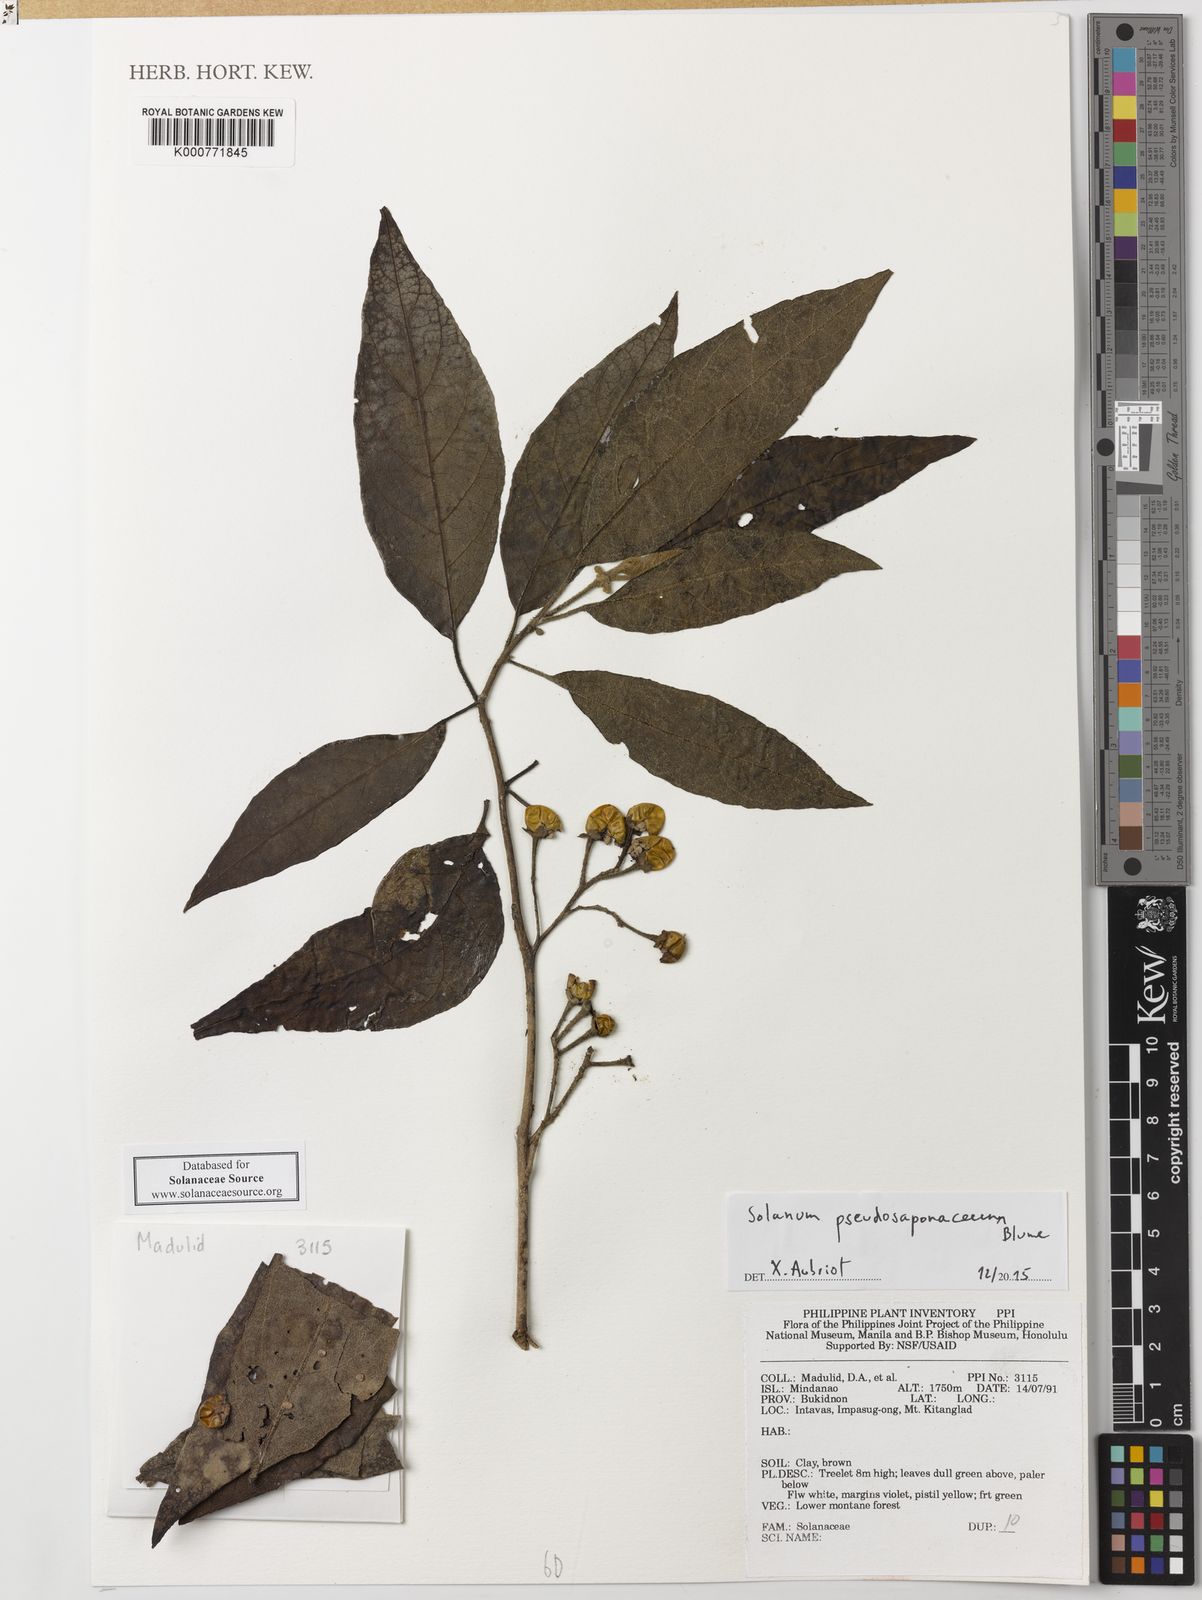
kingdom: Plantae
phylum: Tracheophyta
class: Magnoliopsida
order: Solanales
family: Solanaceae
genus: Solanum
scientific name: Solanum pseudosaponaceum
